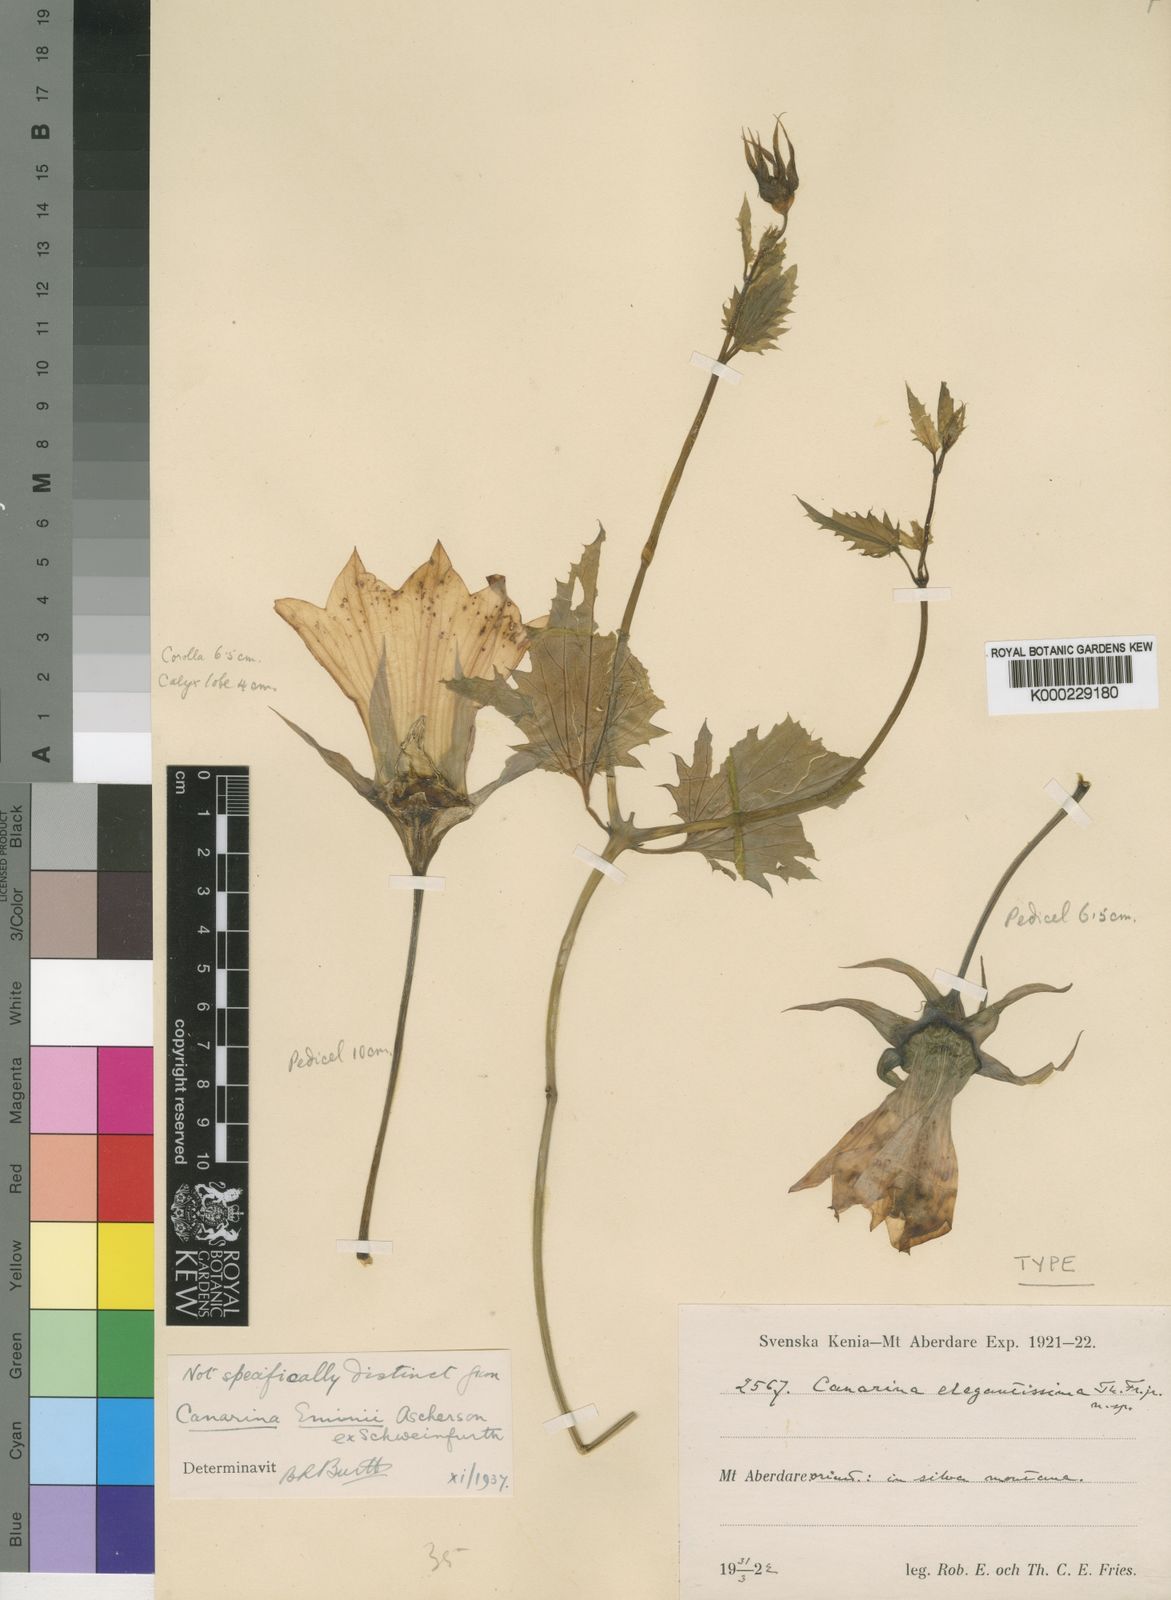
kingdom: Plantae
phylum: Tracheophyta
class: Magnoliopsida
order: Asterales
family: Campanulaceae
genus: Canarina
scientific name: Canarina eminii
